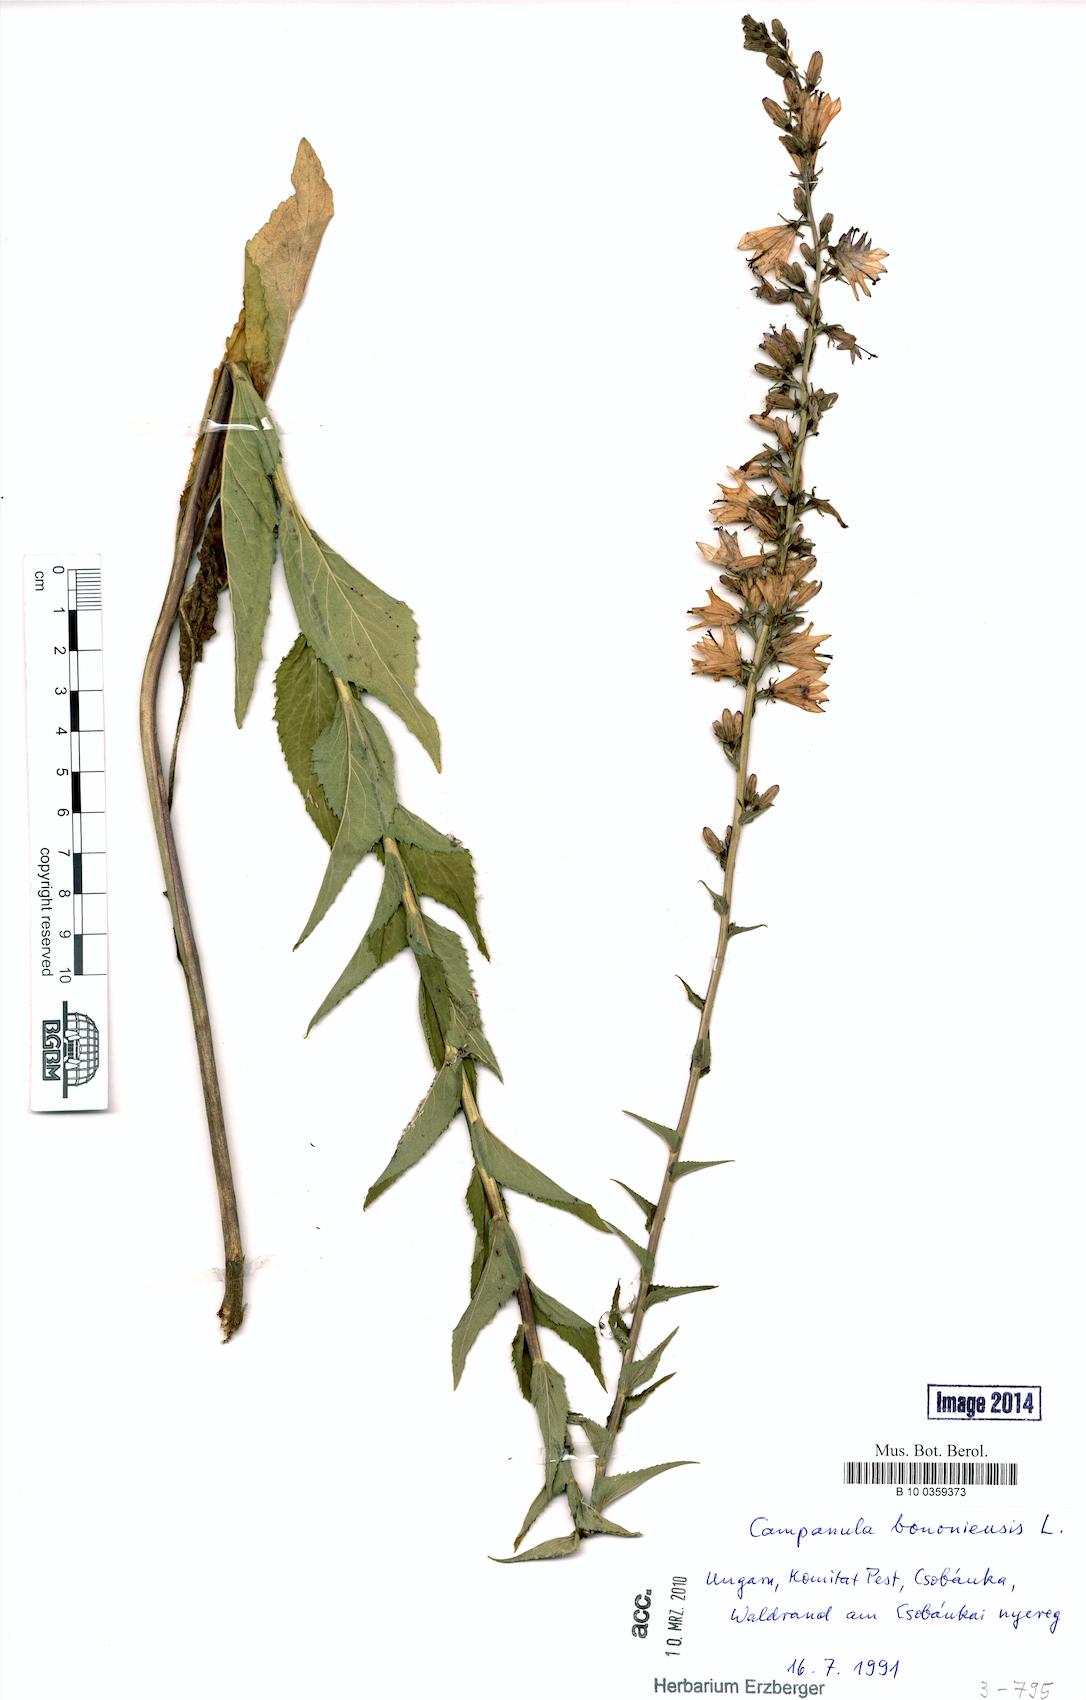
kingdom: Plantae
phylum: Tracheophyta
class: Magnoliopsida
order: Asterales
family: Campanulaceae
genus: Campanula
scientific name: Campanula bononiensis
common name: Pale bellflower
